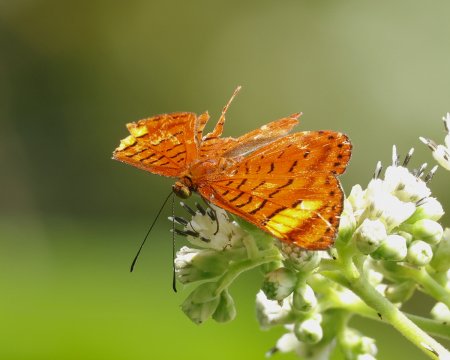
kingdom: Animalia
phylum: Arthropoda
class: Insecta
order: Lepidoptera
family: Lycaenidae
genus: Emesis
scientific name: Emesis lacrines
